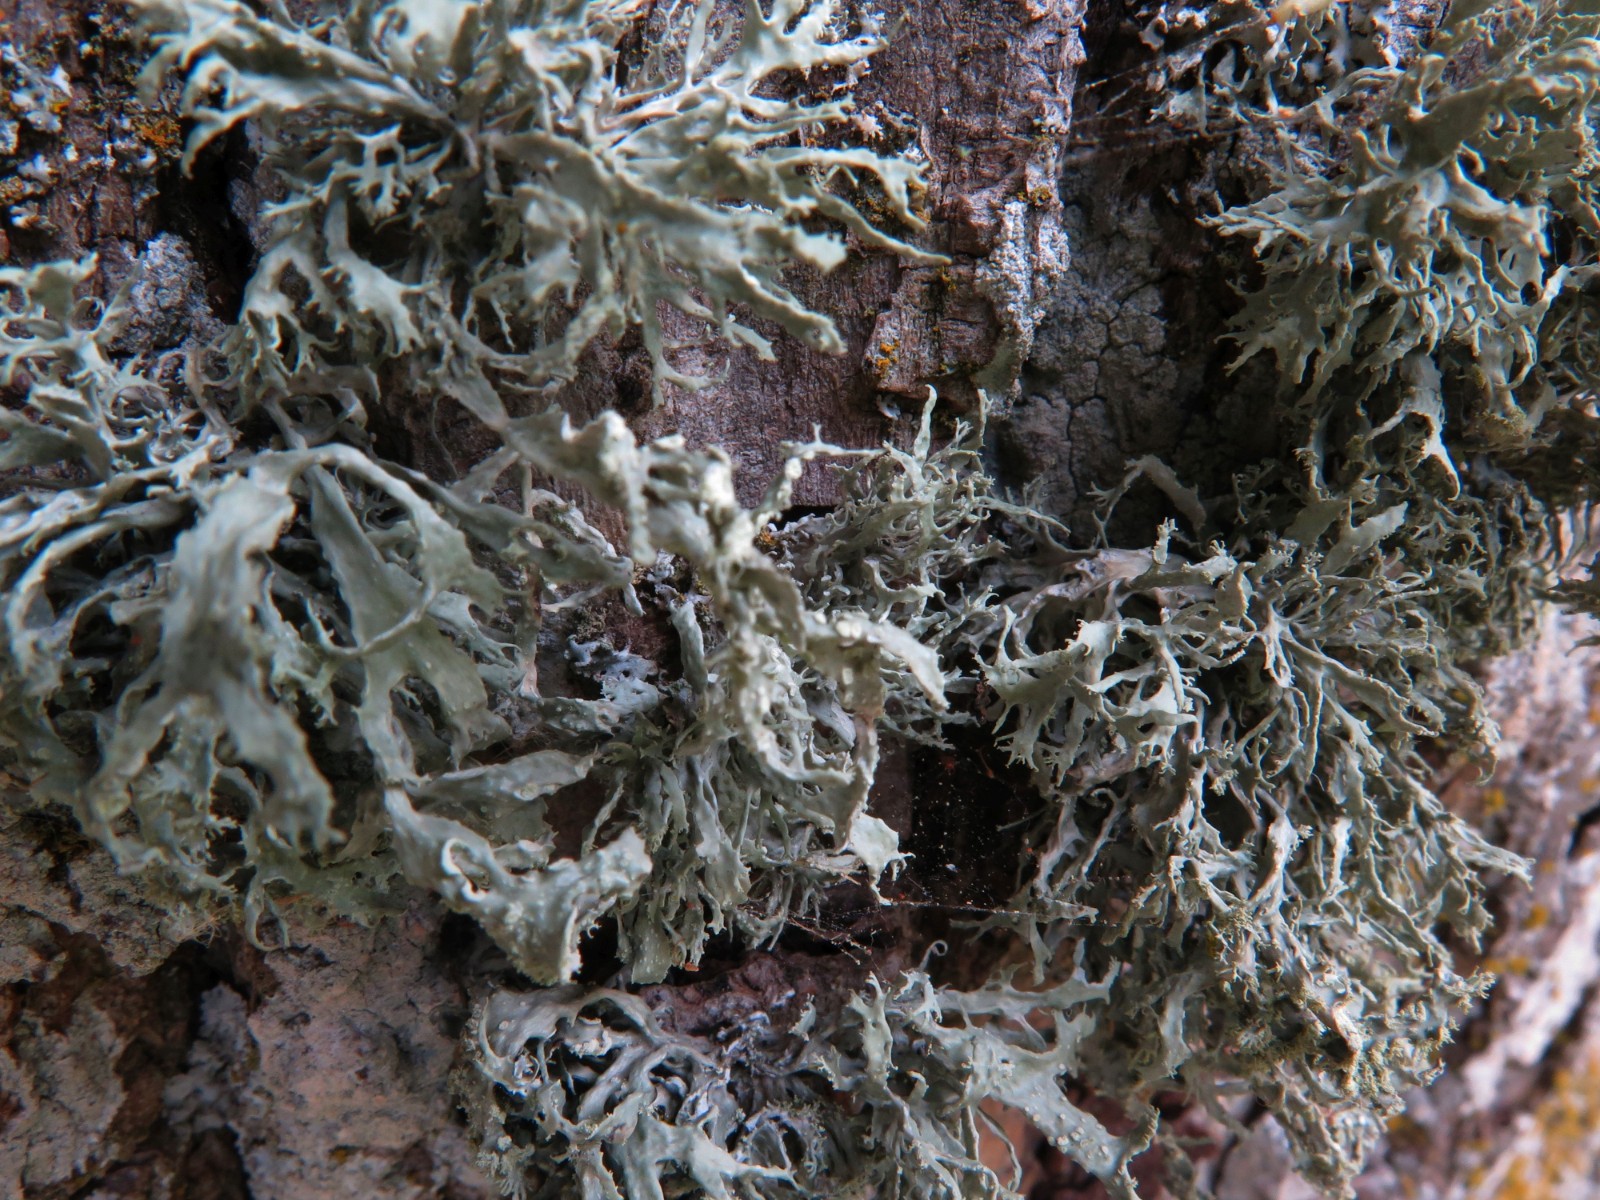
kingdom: Fungi
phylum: Ascomycota
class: Lecanoromycetes
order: Lecanorales
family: Ramalinaceae
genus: Ramalina
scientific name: Ramalina farinacea
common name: melet grenlav
